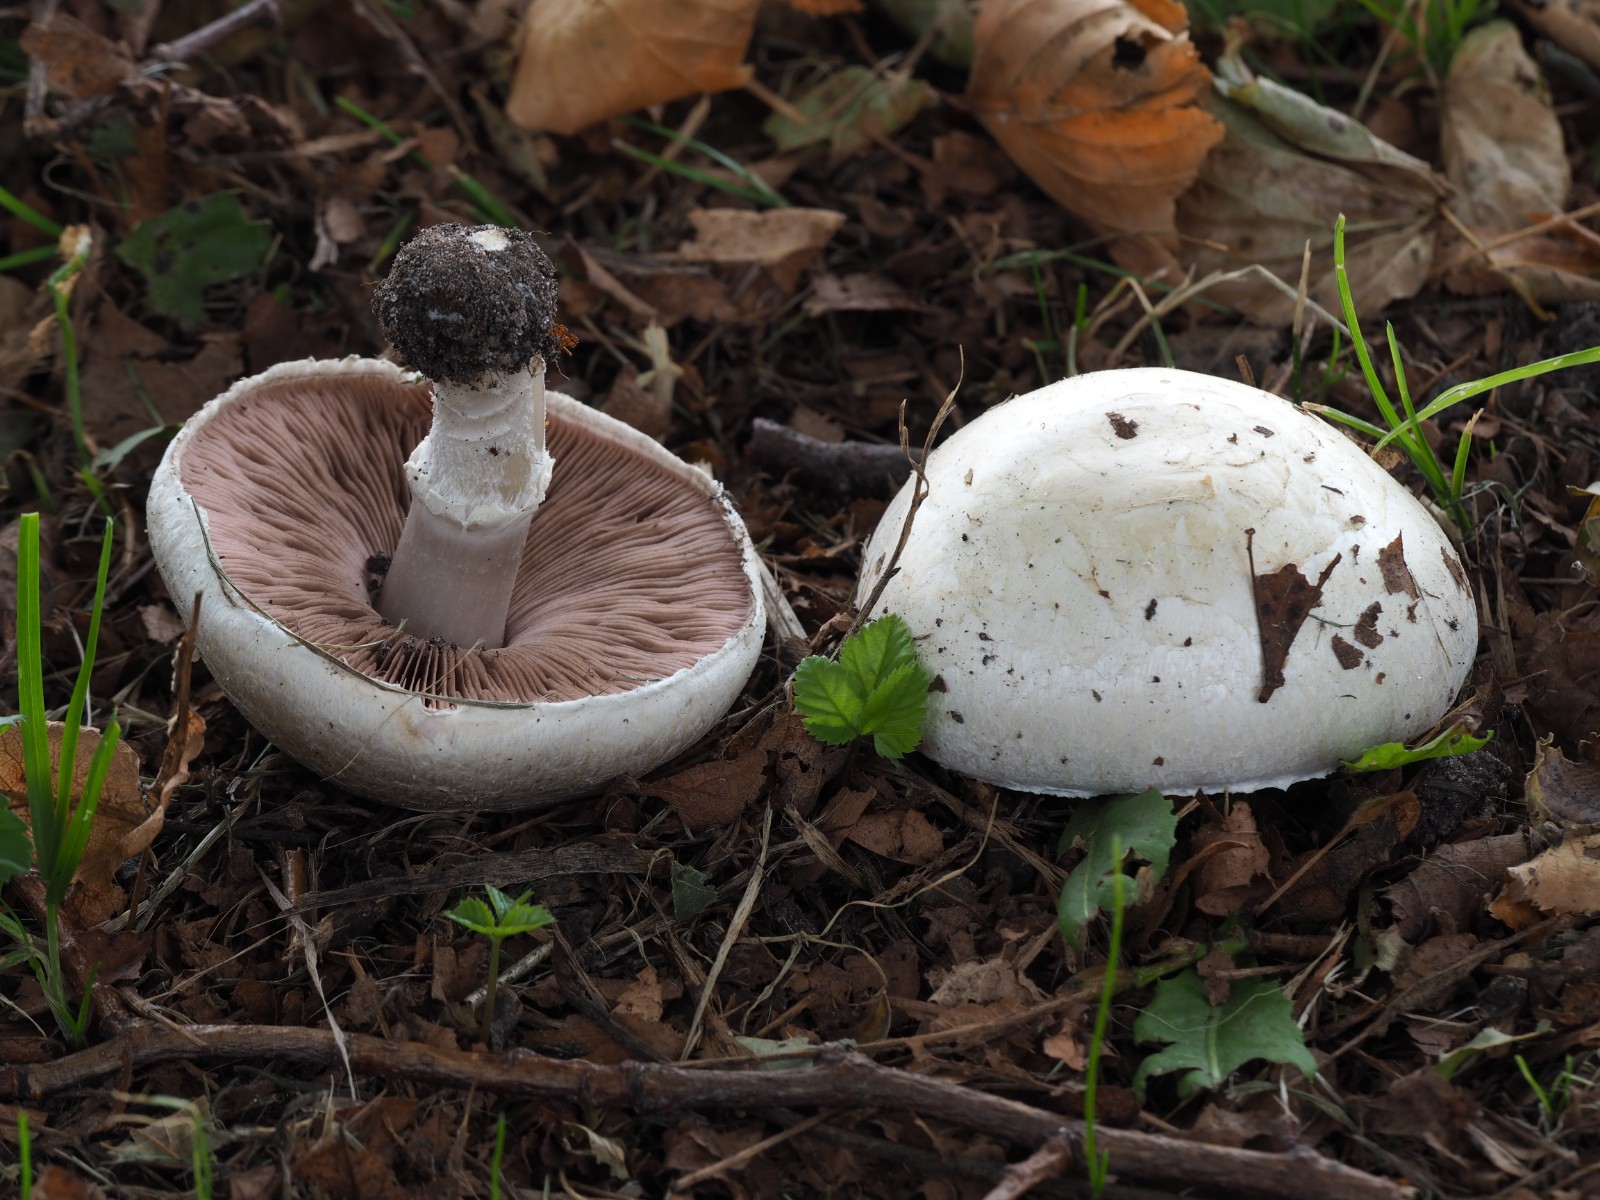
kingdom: Fungi
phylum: Basidiomycota
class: Agaricomycetes
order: Agaricales
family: Agaricaceae
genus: Agaricus
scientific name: Agaricus campestris
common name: mark-champignon
